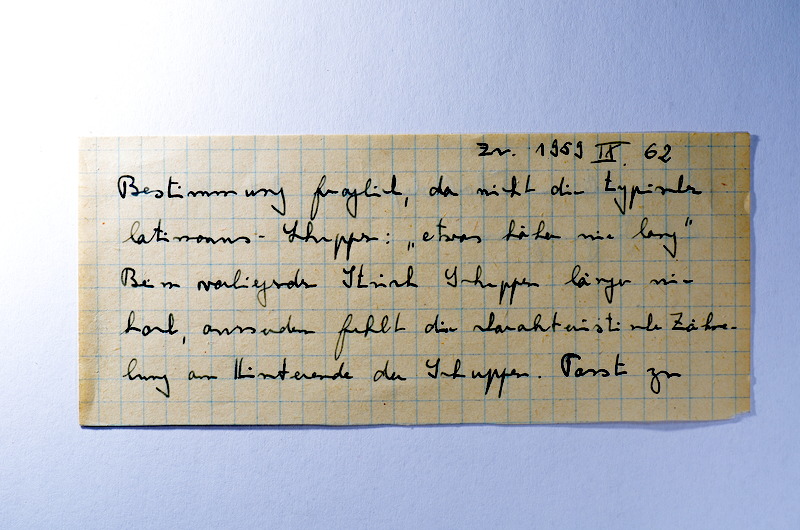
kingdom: Animalia
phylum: Chordata
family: Pholidophoridae
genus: Pholidophorus
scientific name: Pholidophorus
